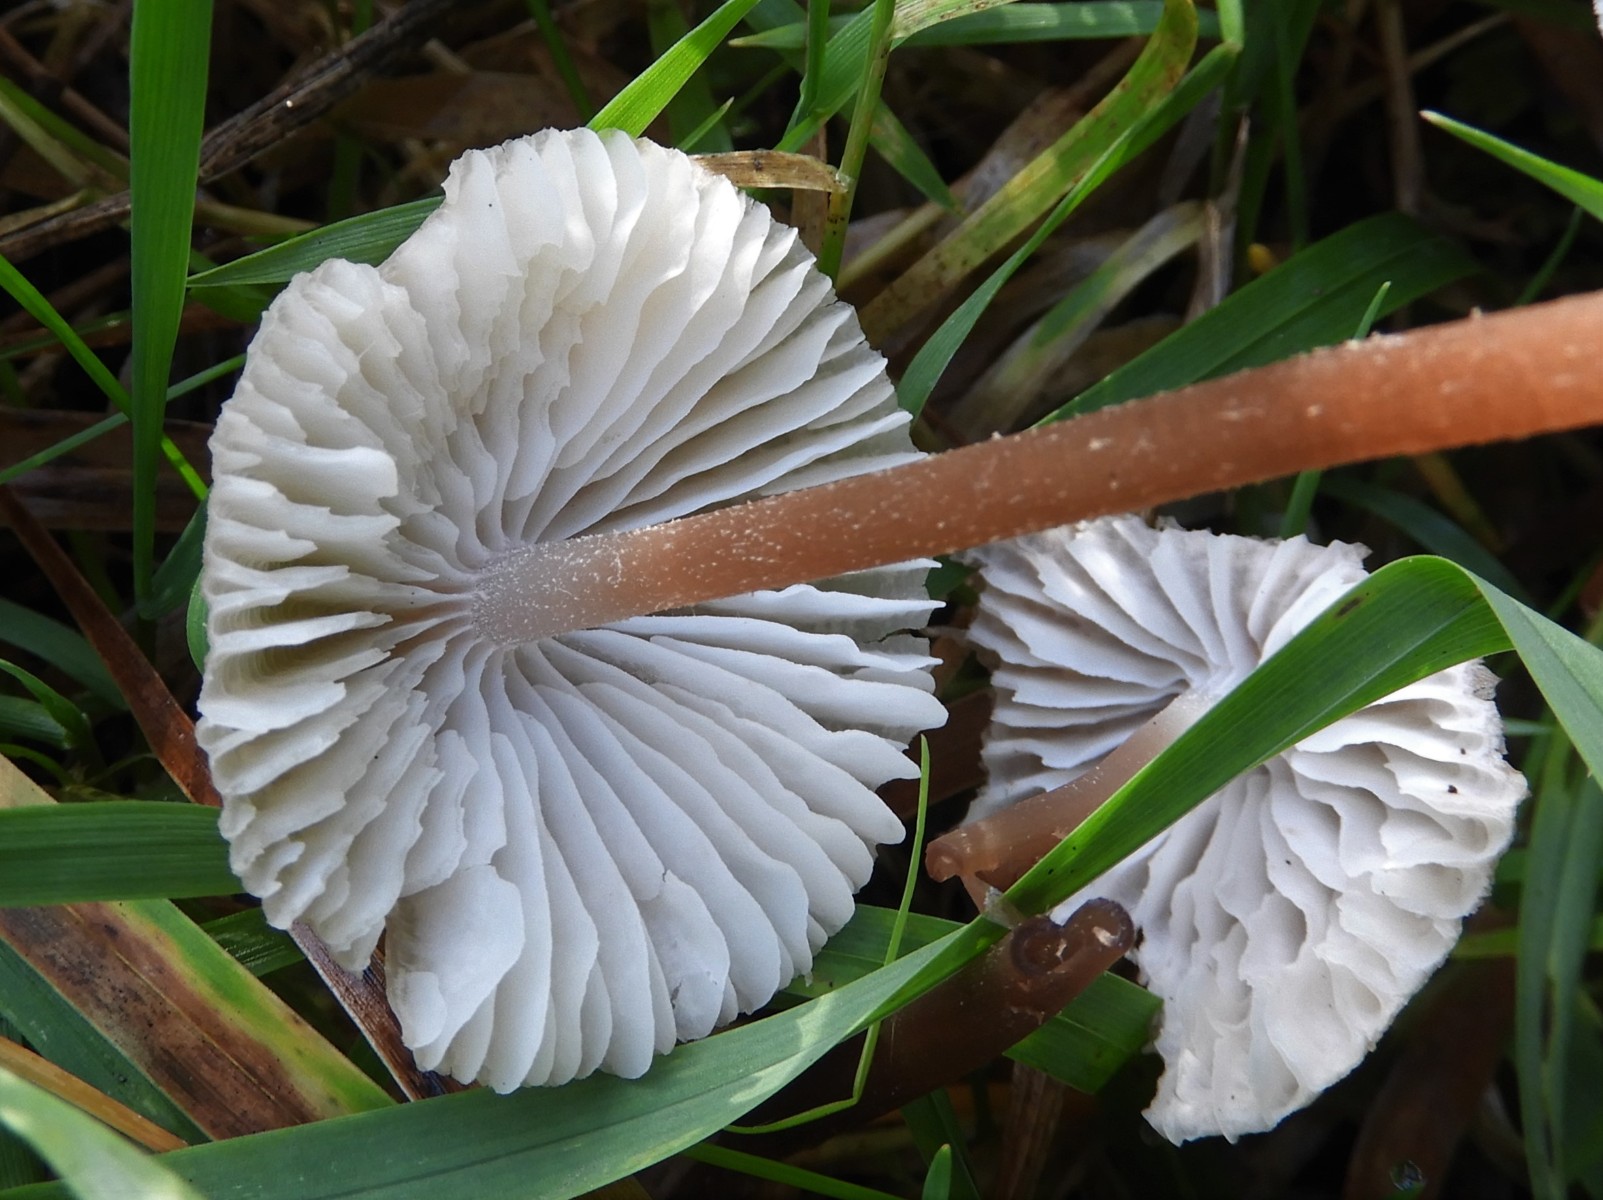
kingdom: Fungi
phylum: Basidiomycota
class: Agaricomycetes
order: Agaricales
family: Mycenaceae
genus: Mycena
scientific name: Mycena zephirus
